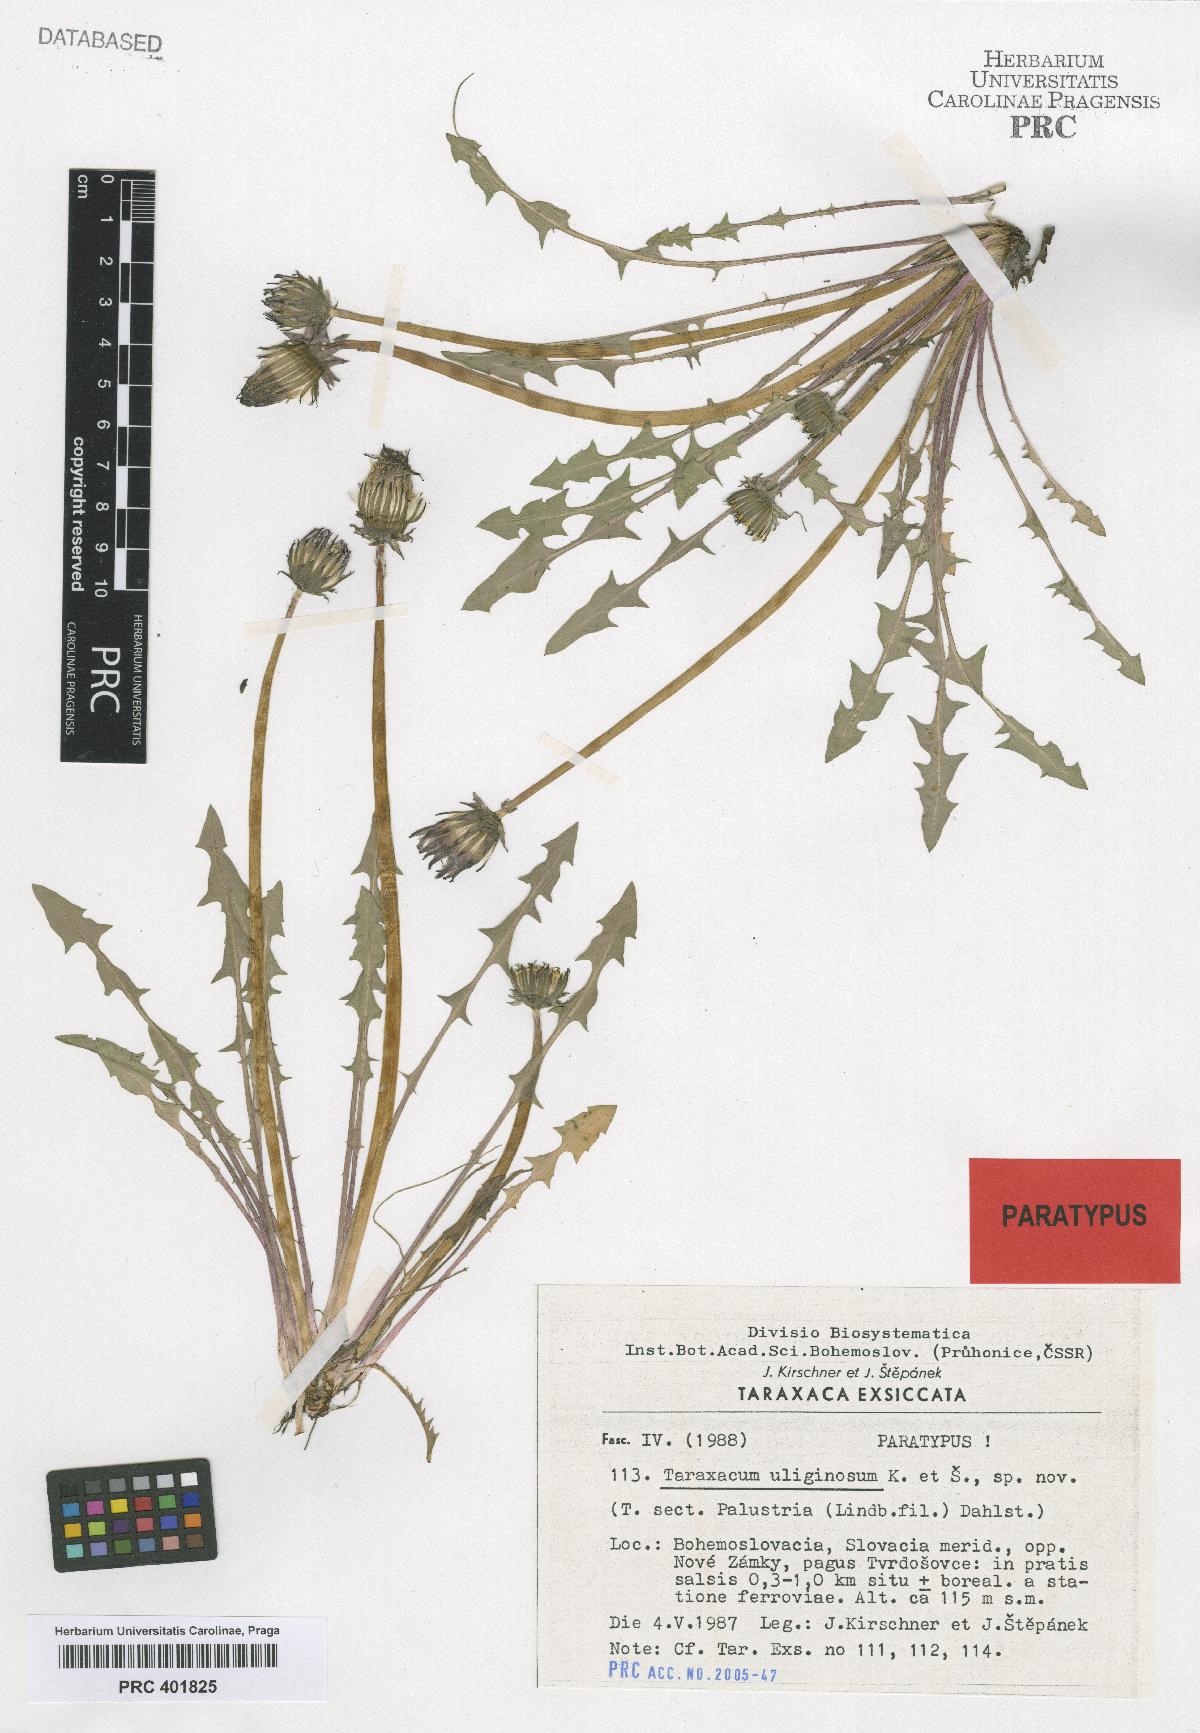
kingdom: Plantae
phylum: Tracheophyta
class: Magnoliopsida
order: Asterales
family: Asteraceae
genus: Taraxacum
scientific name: Taraxacum uliginosum
